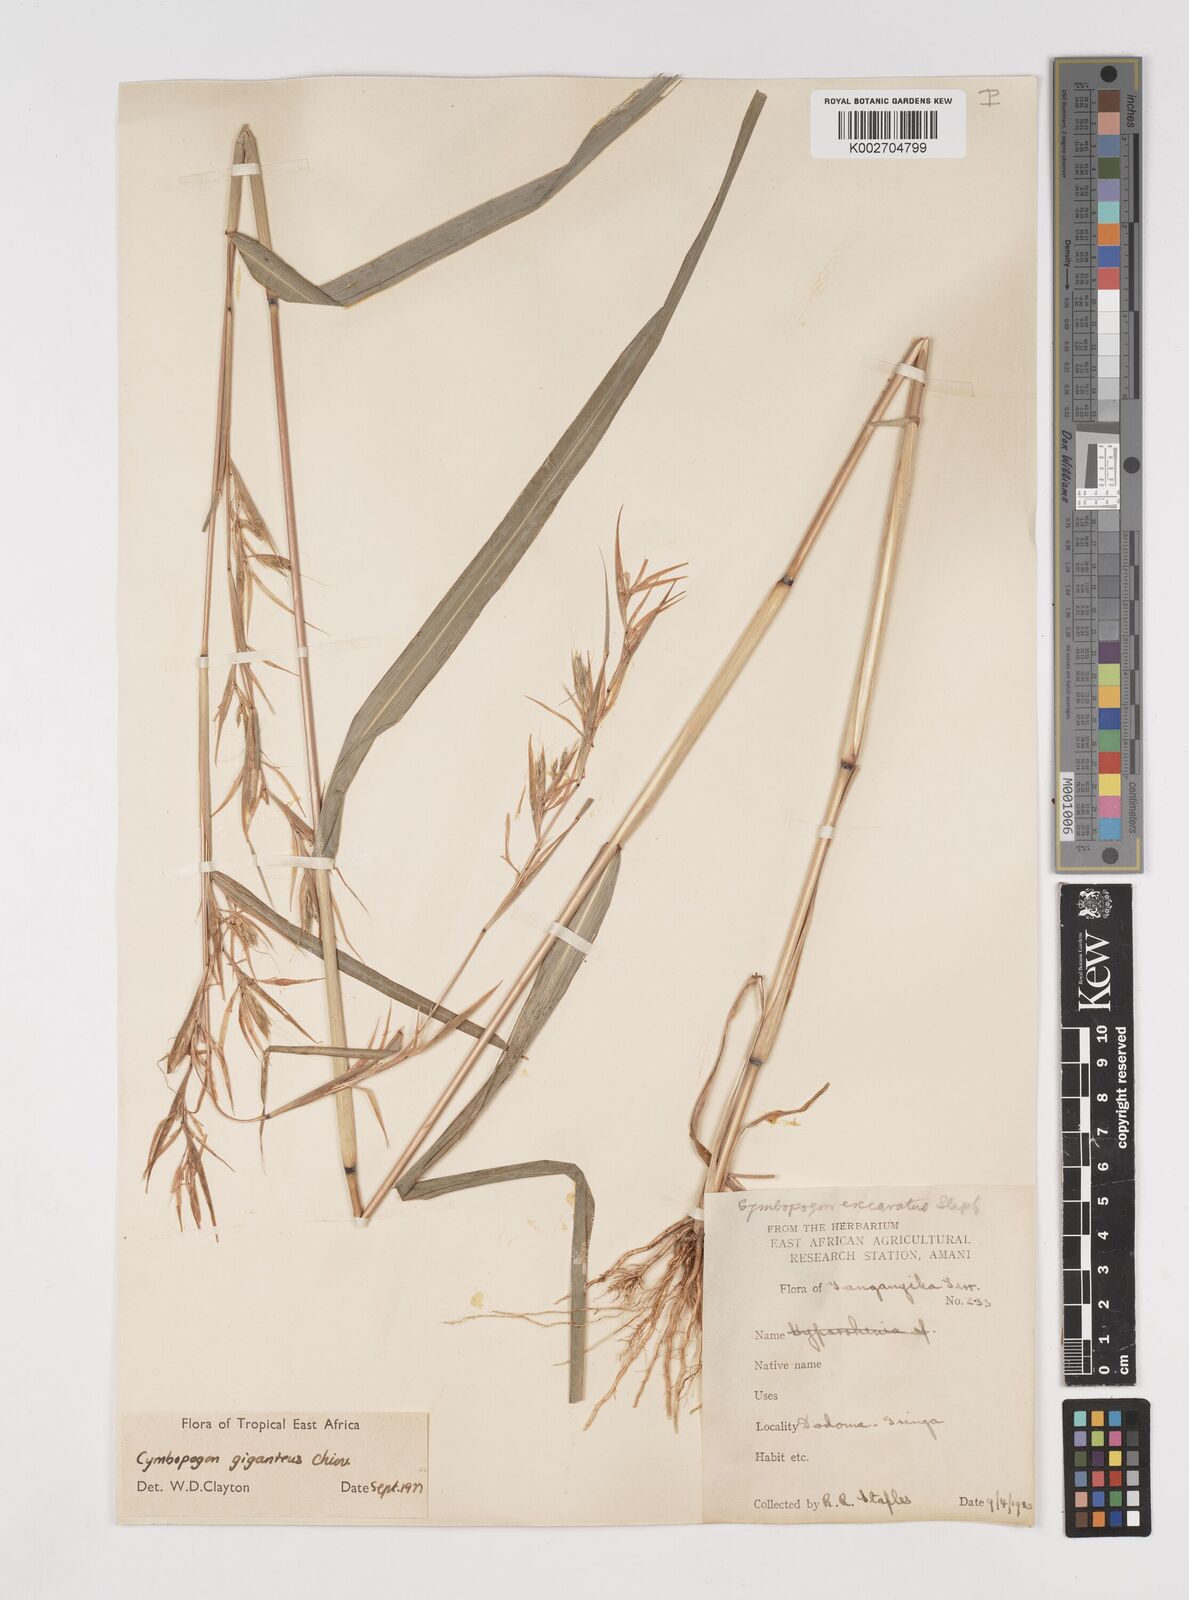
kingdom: Plantae
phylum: Tracheophyta
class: Liliopsida
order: Poales
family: Poaceae
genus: Cymbopogon
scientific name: Cymbopogon giganteus
